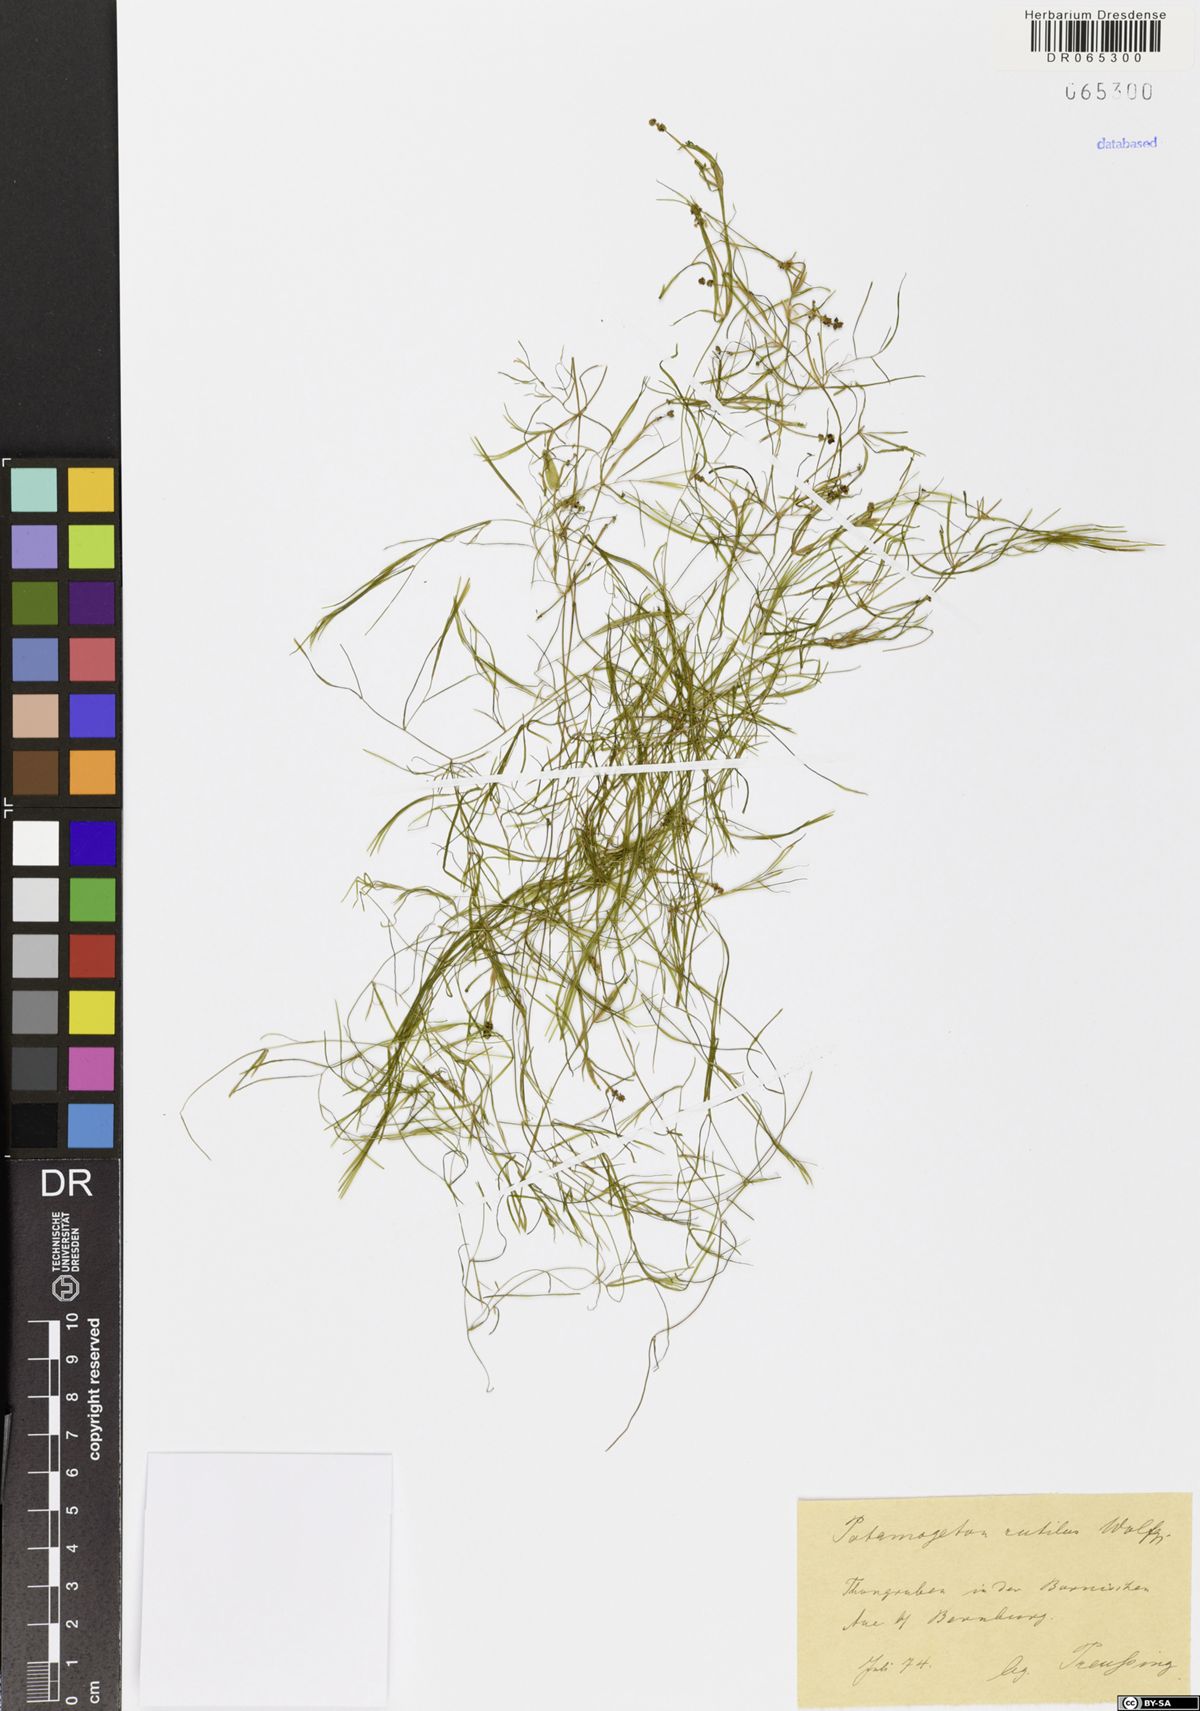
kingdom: Plantae
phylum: Tracheophyta
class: Liliopsida
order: Alismatales
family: Potamogetonaceae
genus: Potamogeton
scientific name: Potamogeton rutilus
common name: Shetland pondweed
